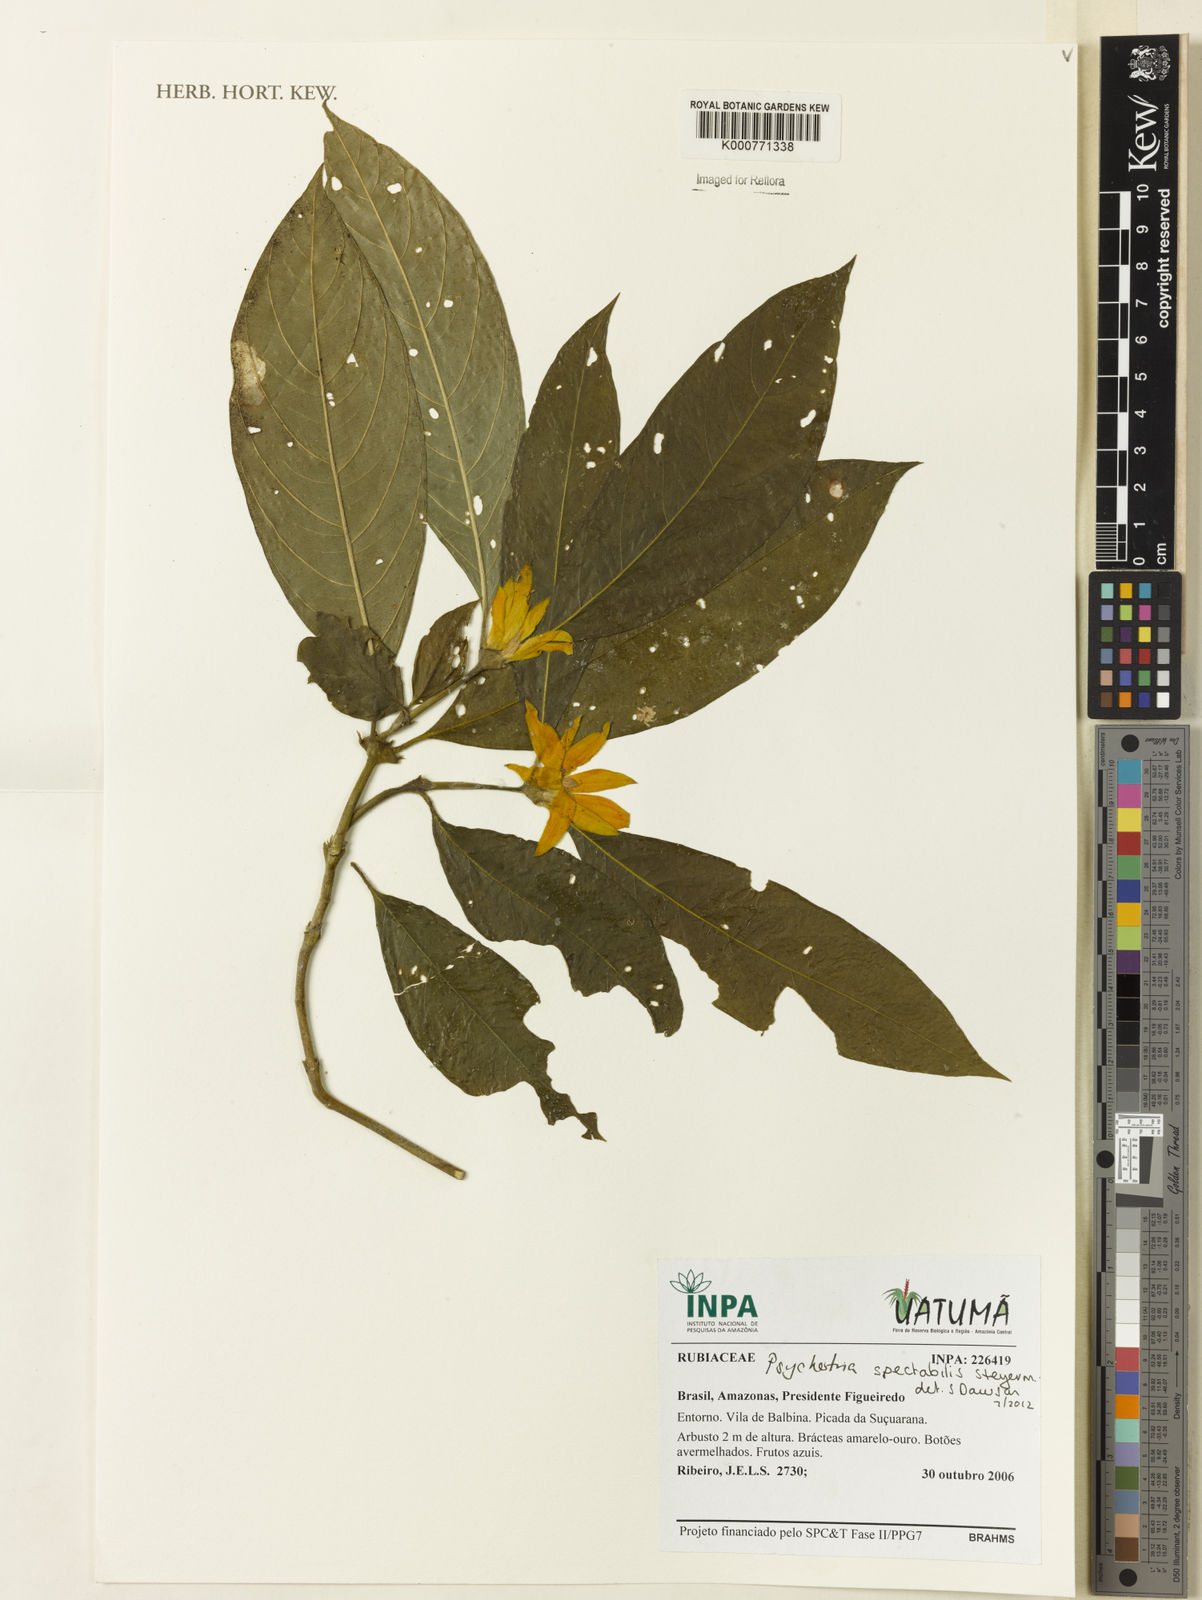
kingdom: Plantae
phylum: Tracheophyta
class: Magnoliopsida
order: Gentianales
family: Rubiaceae
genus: Psychotria
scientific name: Psychotria
